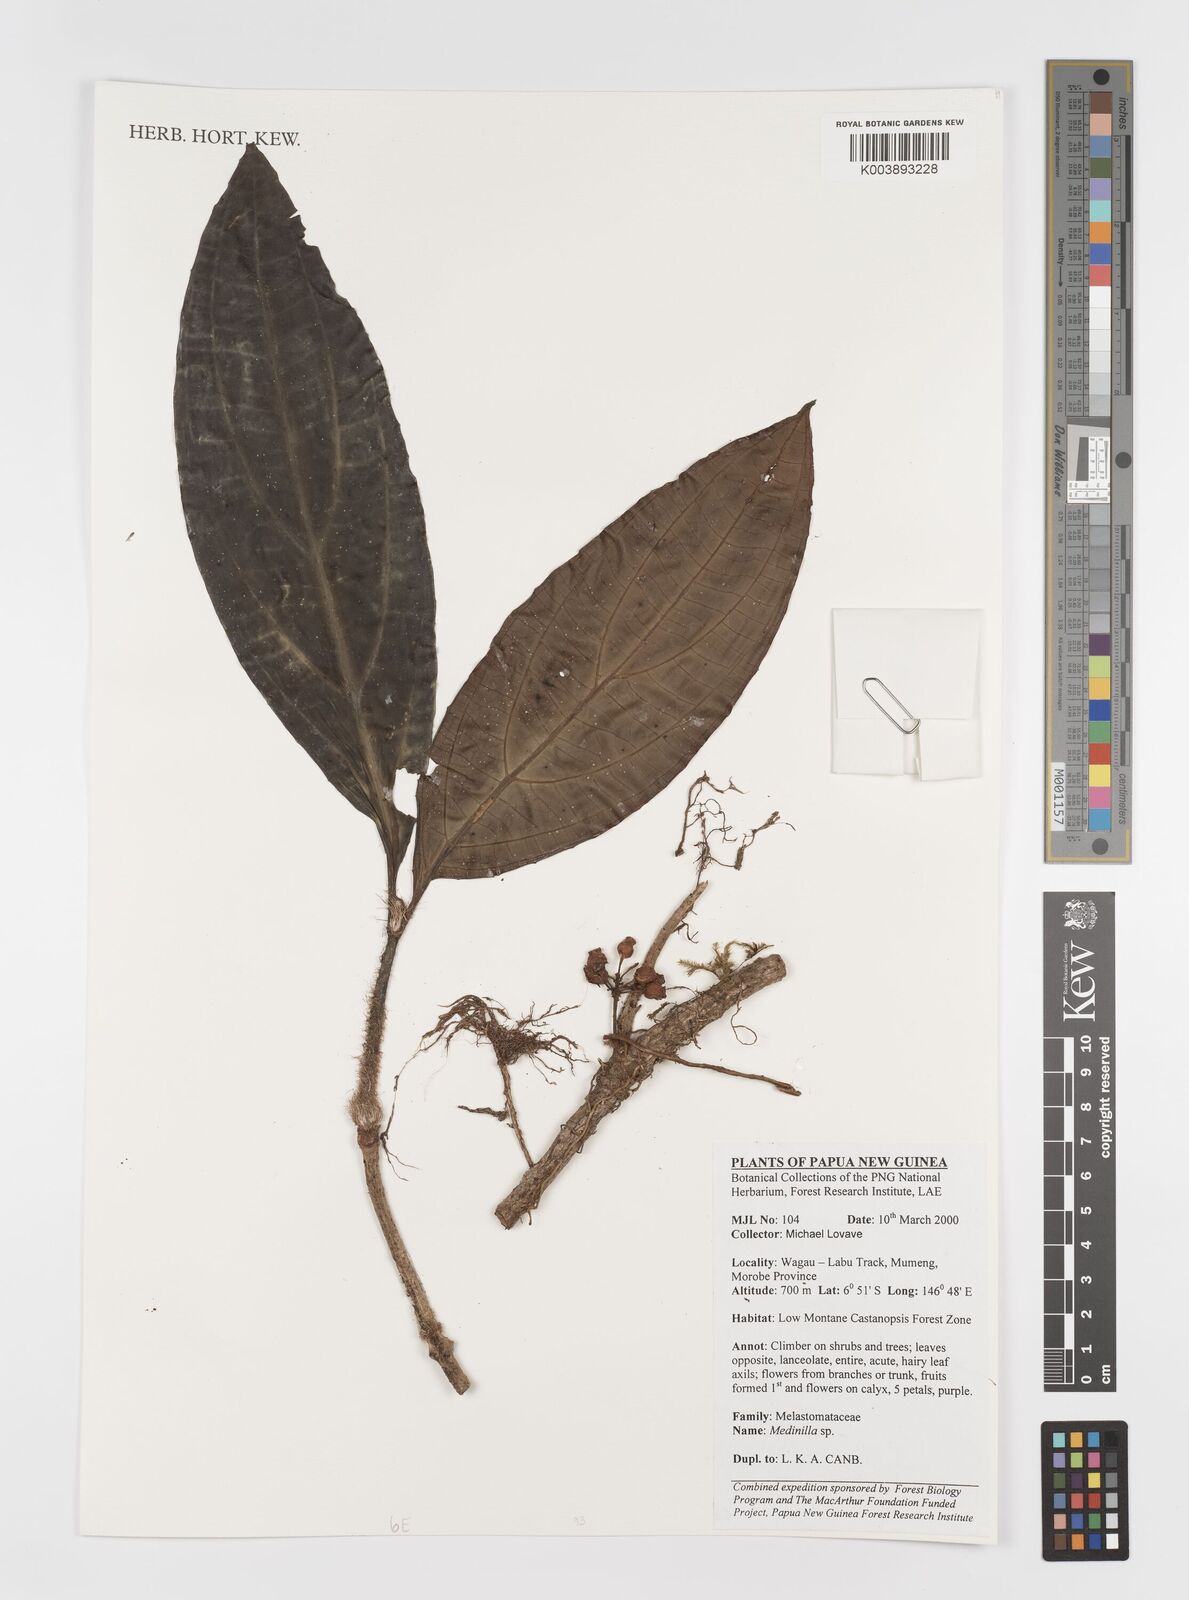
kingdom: Plantae
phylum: Tracheophyta
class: Magnoliopsida
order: Myrtales
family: Melastomataceae
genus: Medinilla
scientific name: Medinilla
